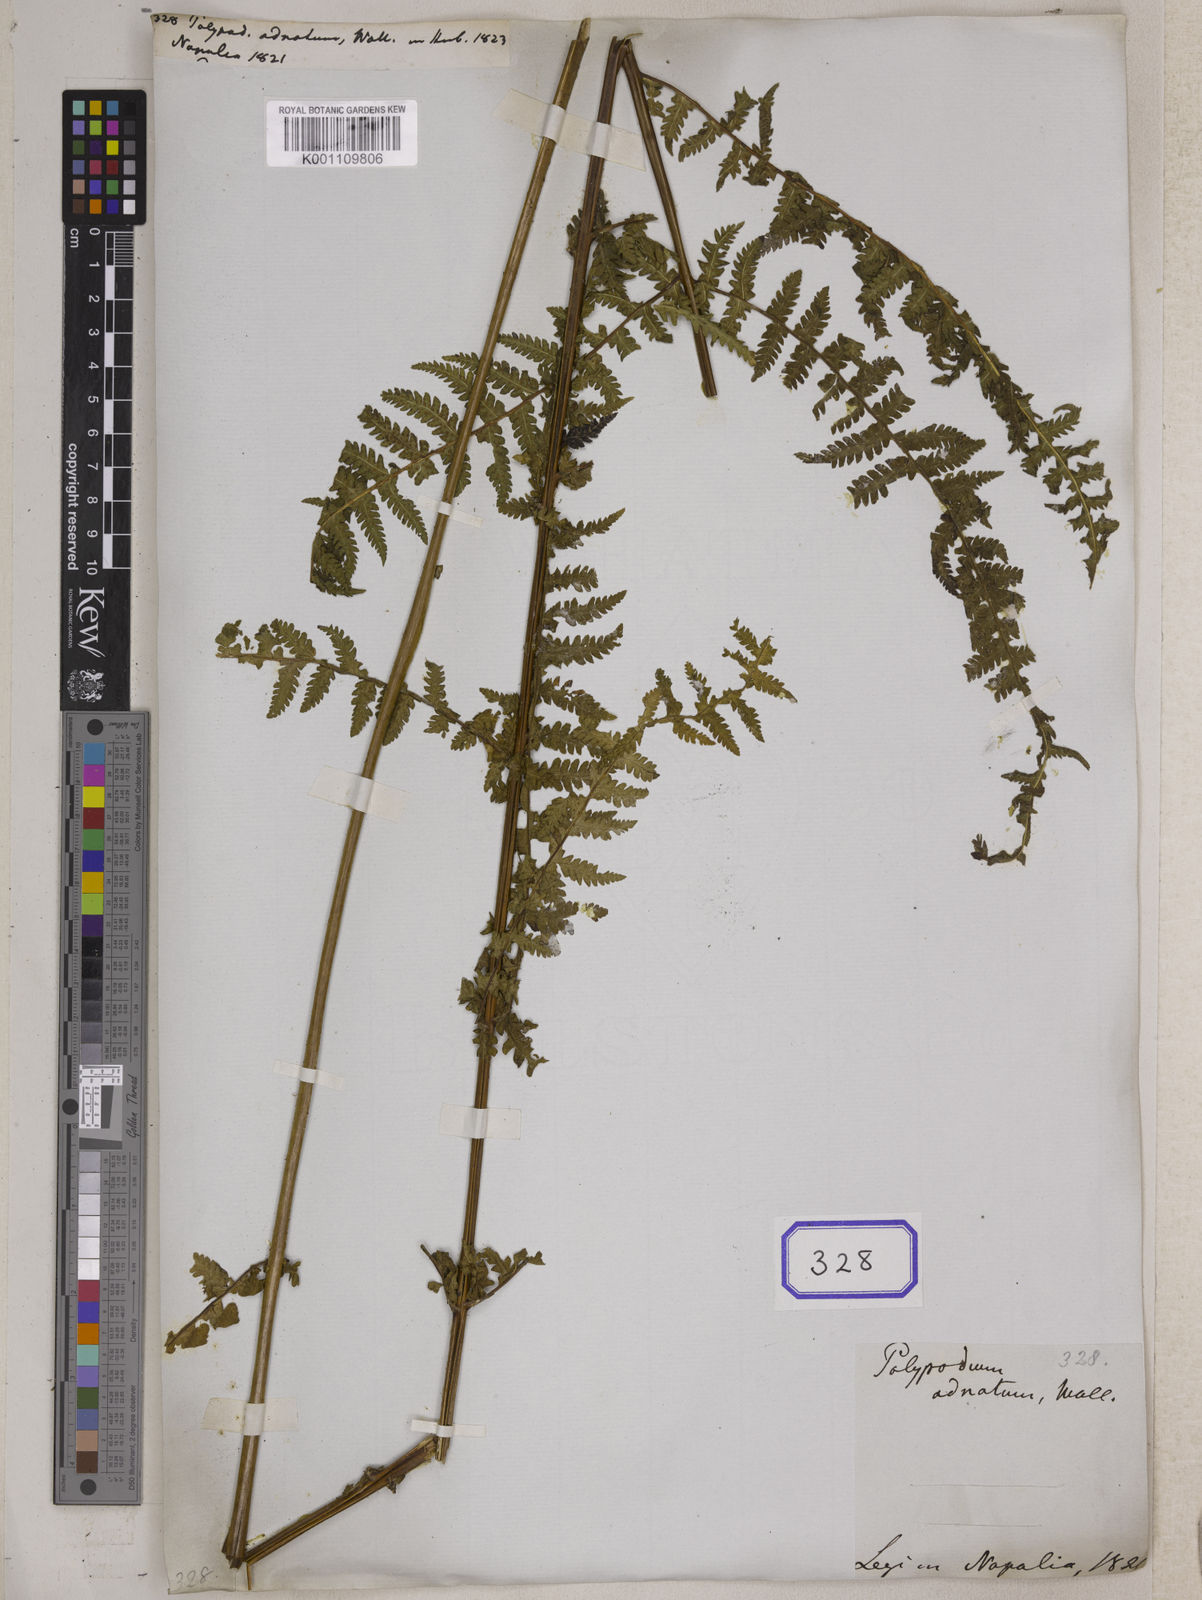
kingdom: Plantae
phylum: Tracheophyta
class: Polypodiopsida
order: Polypodiales
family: Thelypteridaceae
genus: Pseudophegopteris
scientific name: Pseudophegopteris paludosa
